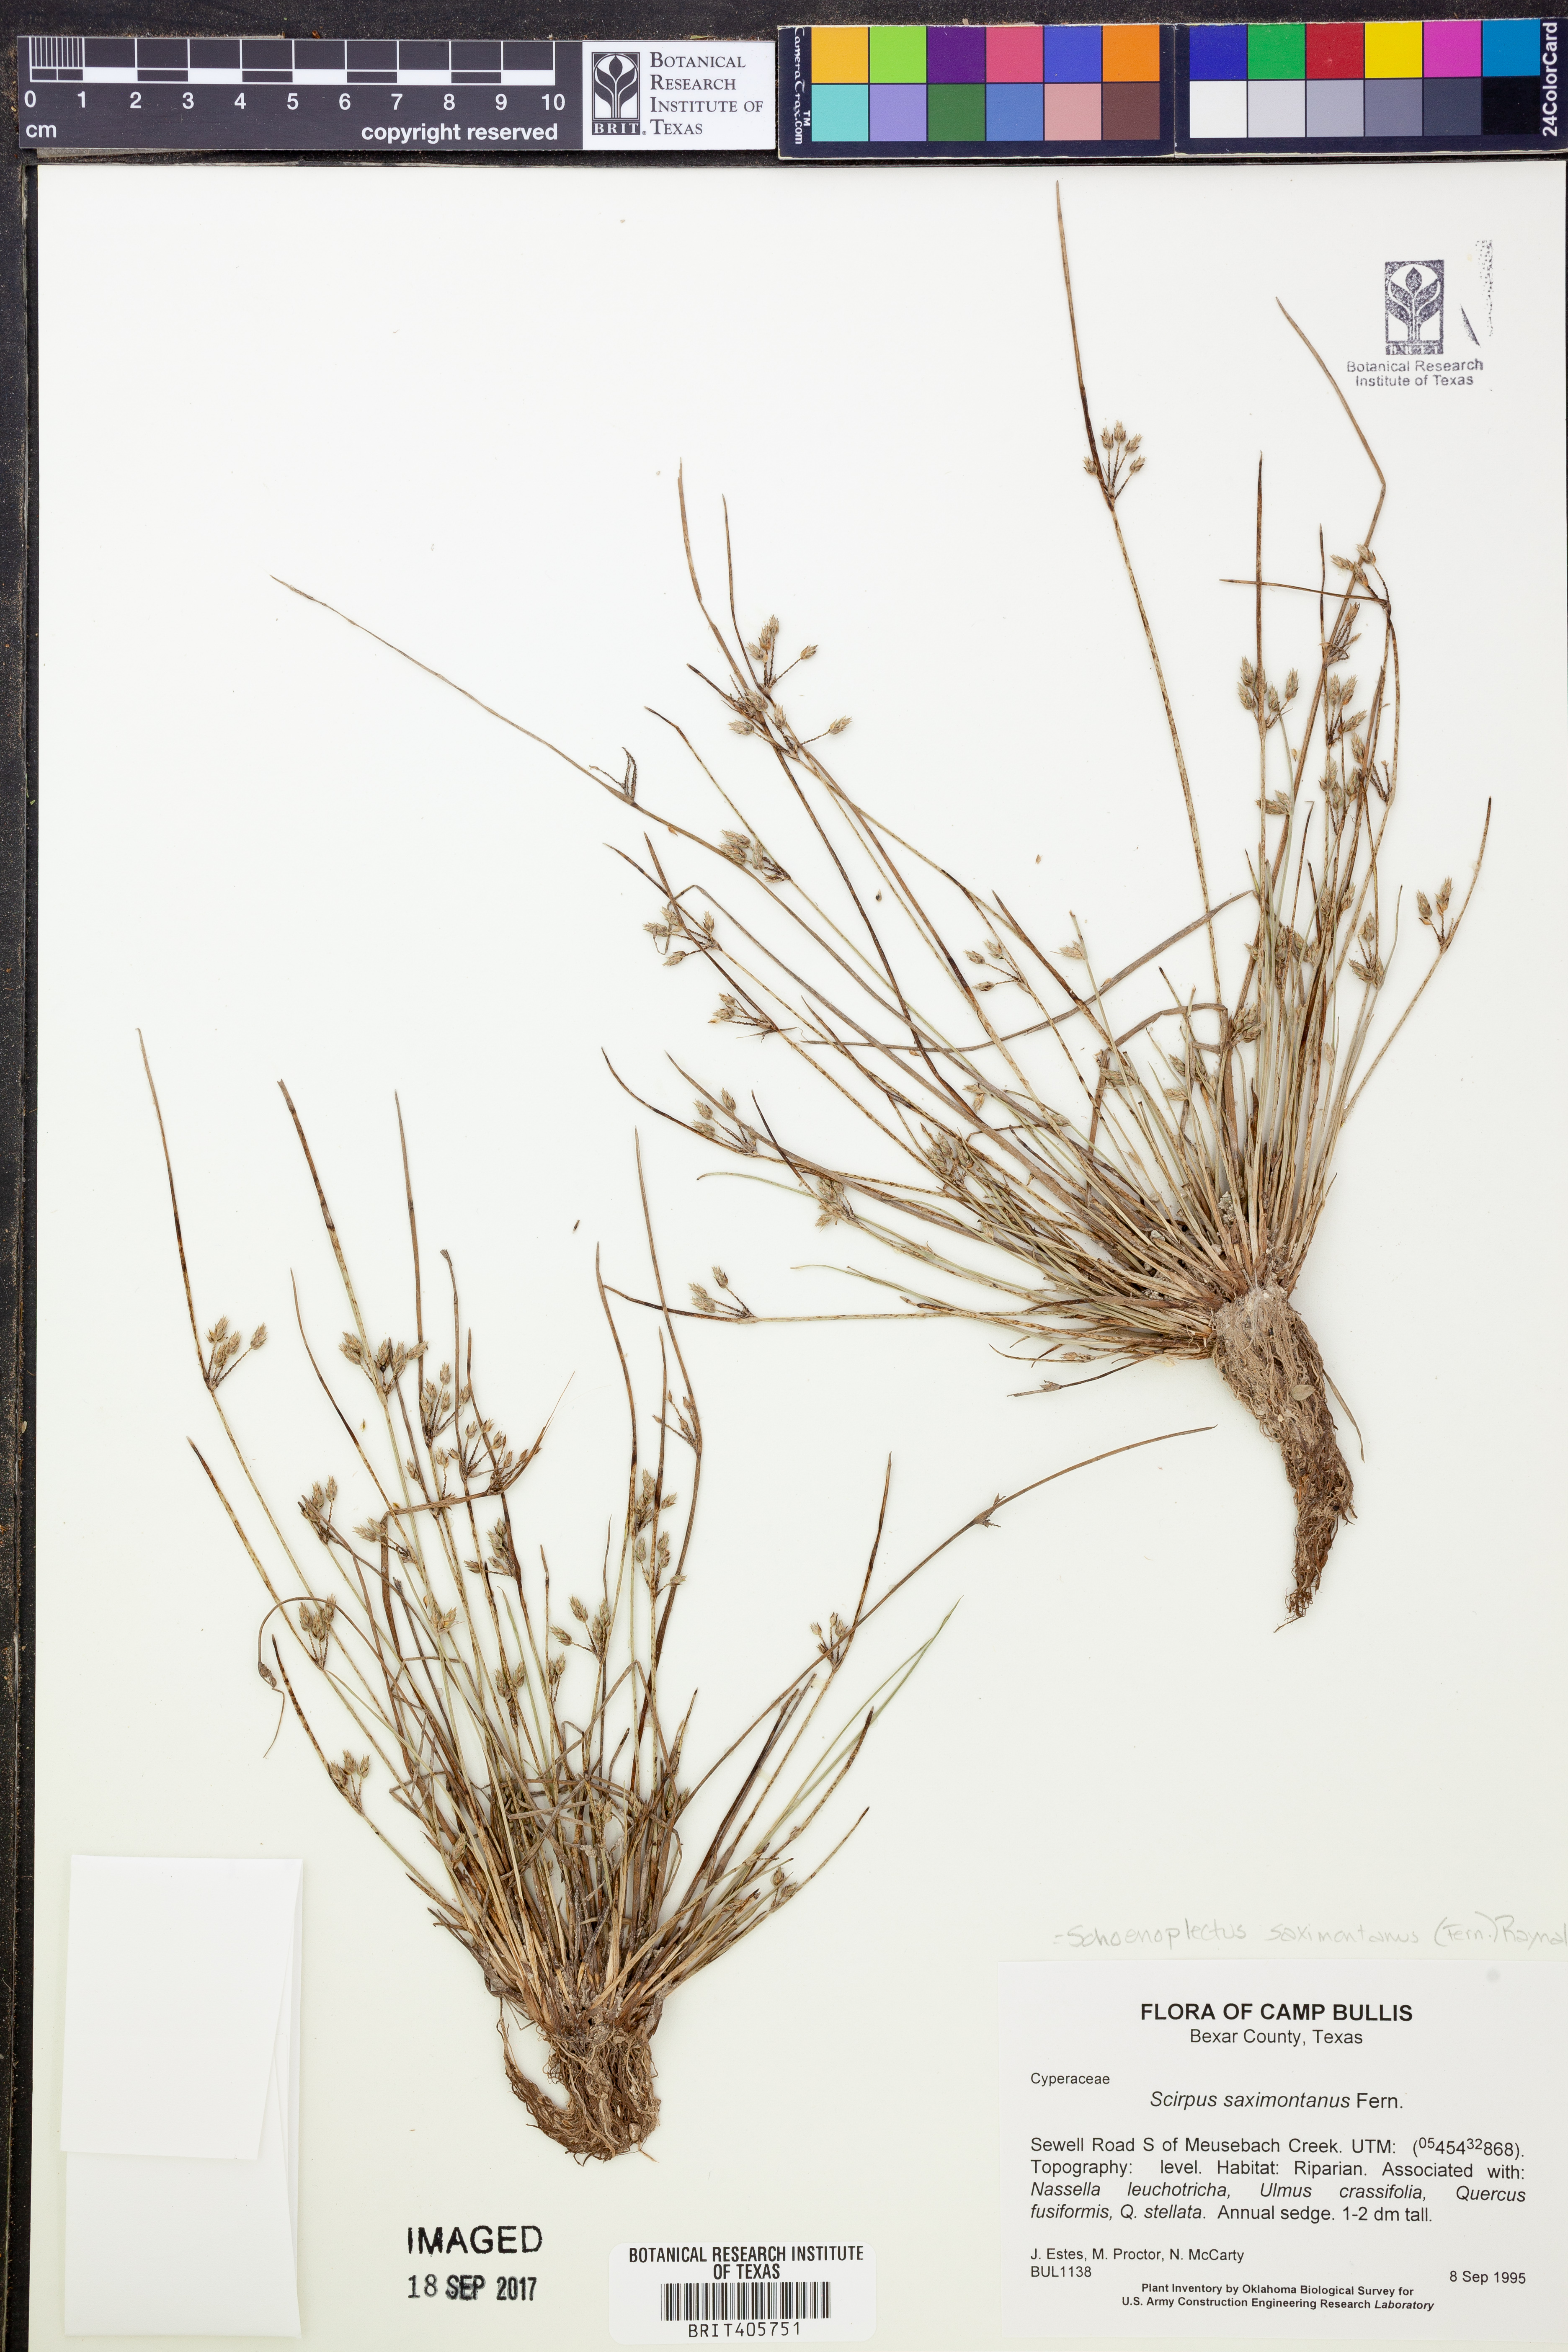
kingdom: Plantae
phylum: Tracheophyta
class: Liliopsida
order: Poales
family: Cyperaceae
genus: Schoenoplectiella
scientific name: Schoenoplectiella saximontana
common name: Rocky mountain clubrush
